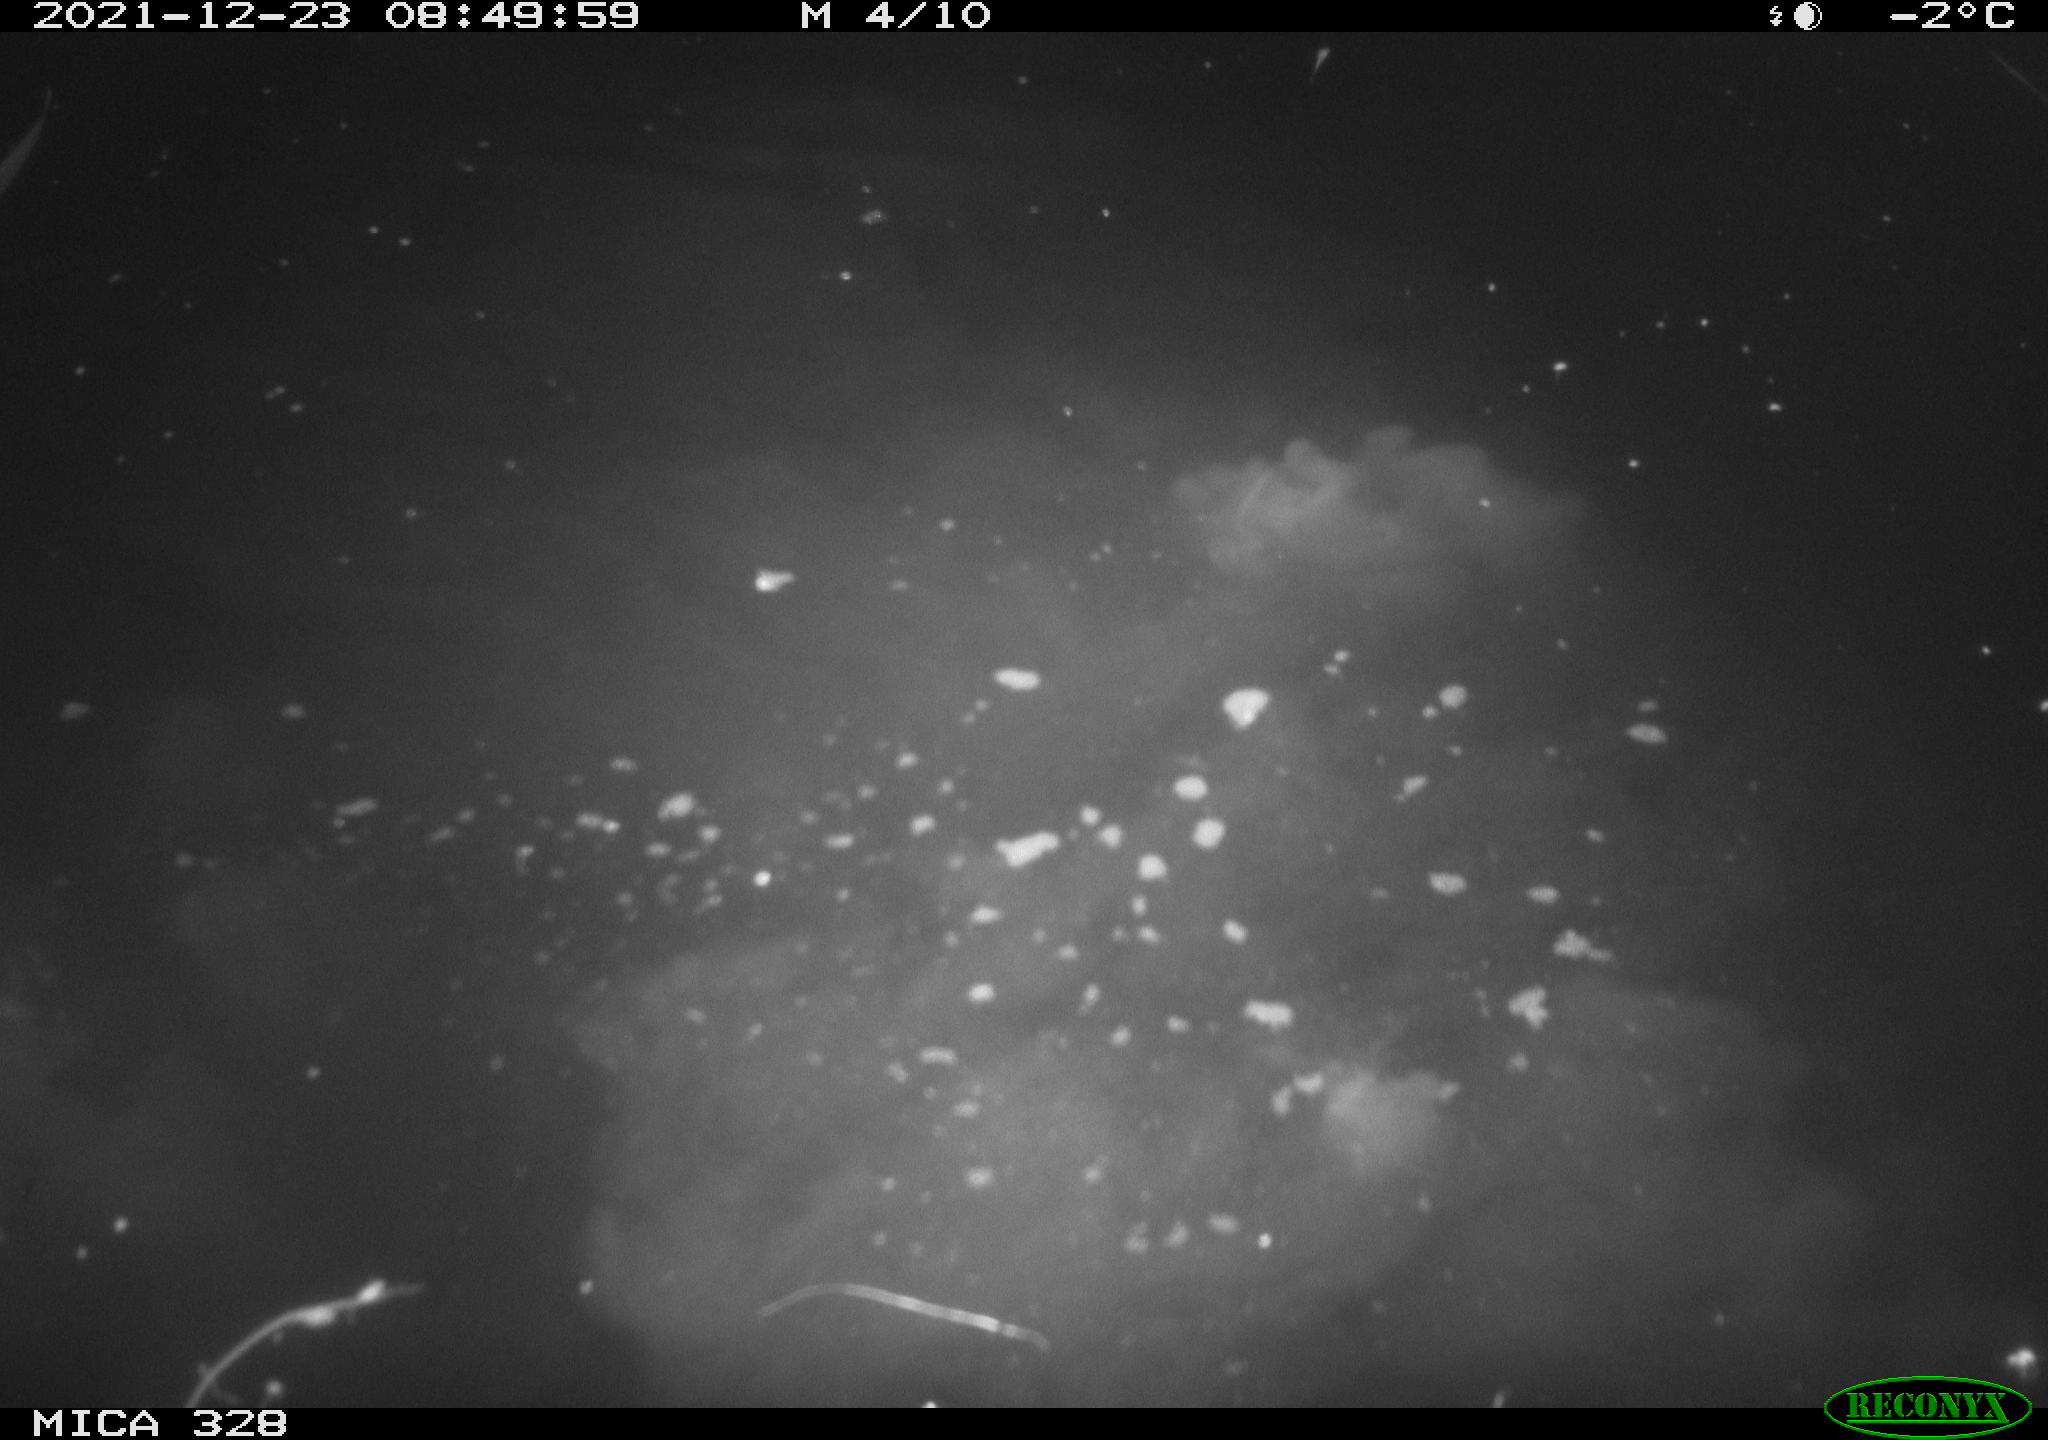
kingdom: Animalia
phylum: Chordata
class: Aves
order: Anseriformes
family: Anatidae
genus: Anas
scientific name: Anas platyrhynchos
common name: Mallard
